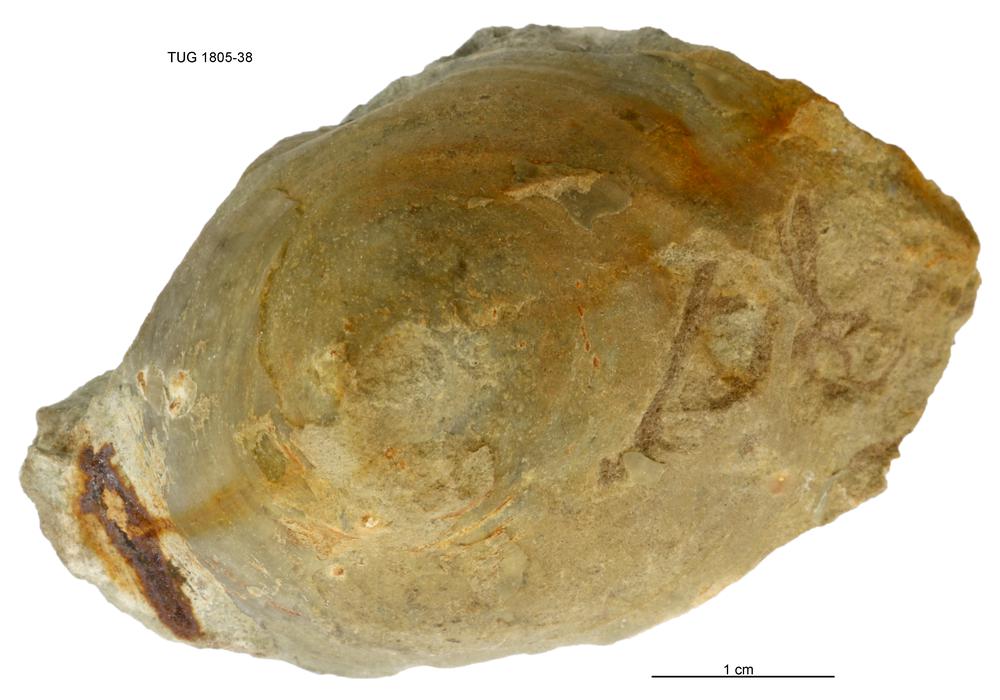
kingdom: Animalia
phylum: Mollusca
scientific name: Mollusca
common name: Mollusca
